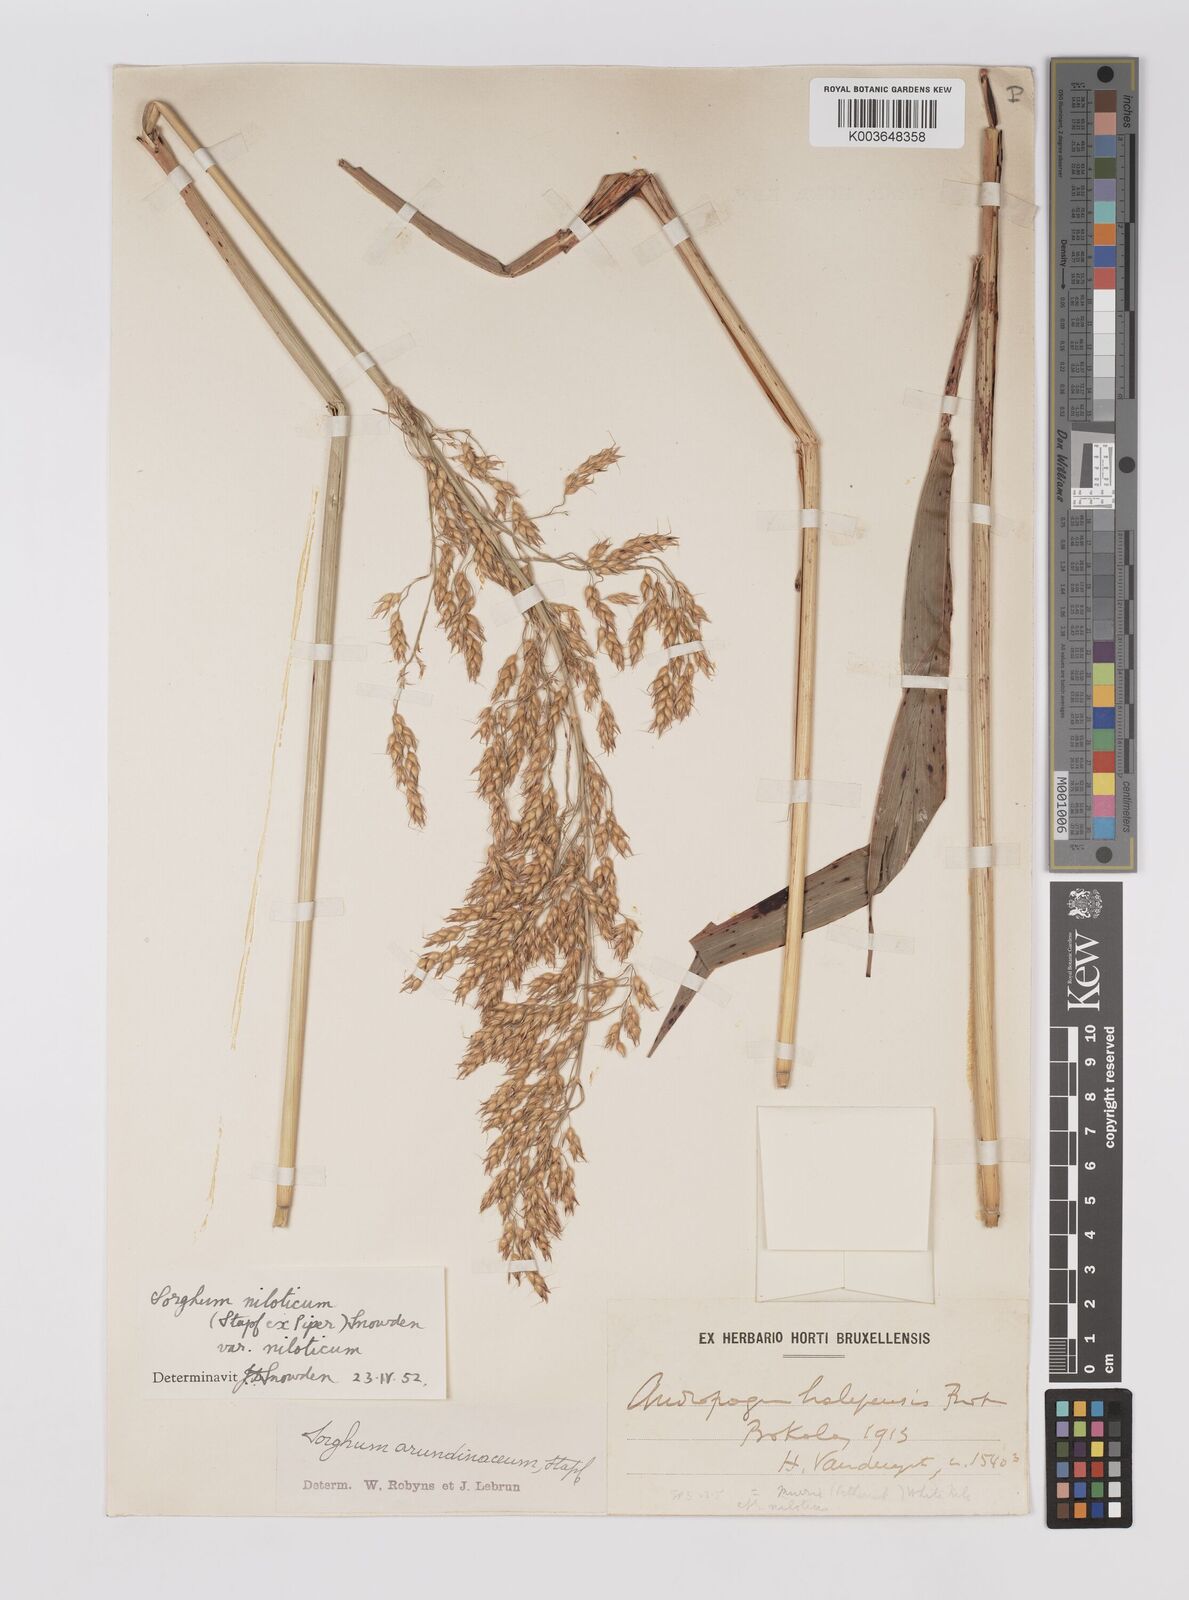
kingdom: Plantae
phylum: Tracheophyta
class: Liliopsida
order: Poales
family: Poaceae
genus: Sorghum
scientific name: Sorghum drummondii
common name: Sudangrass
